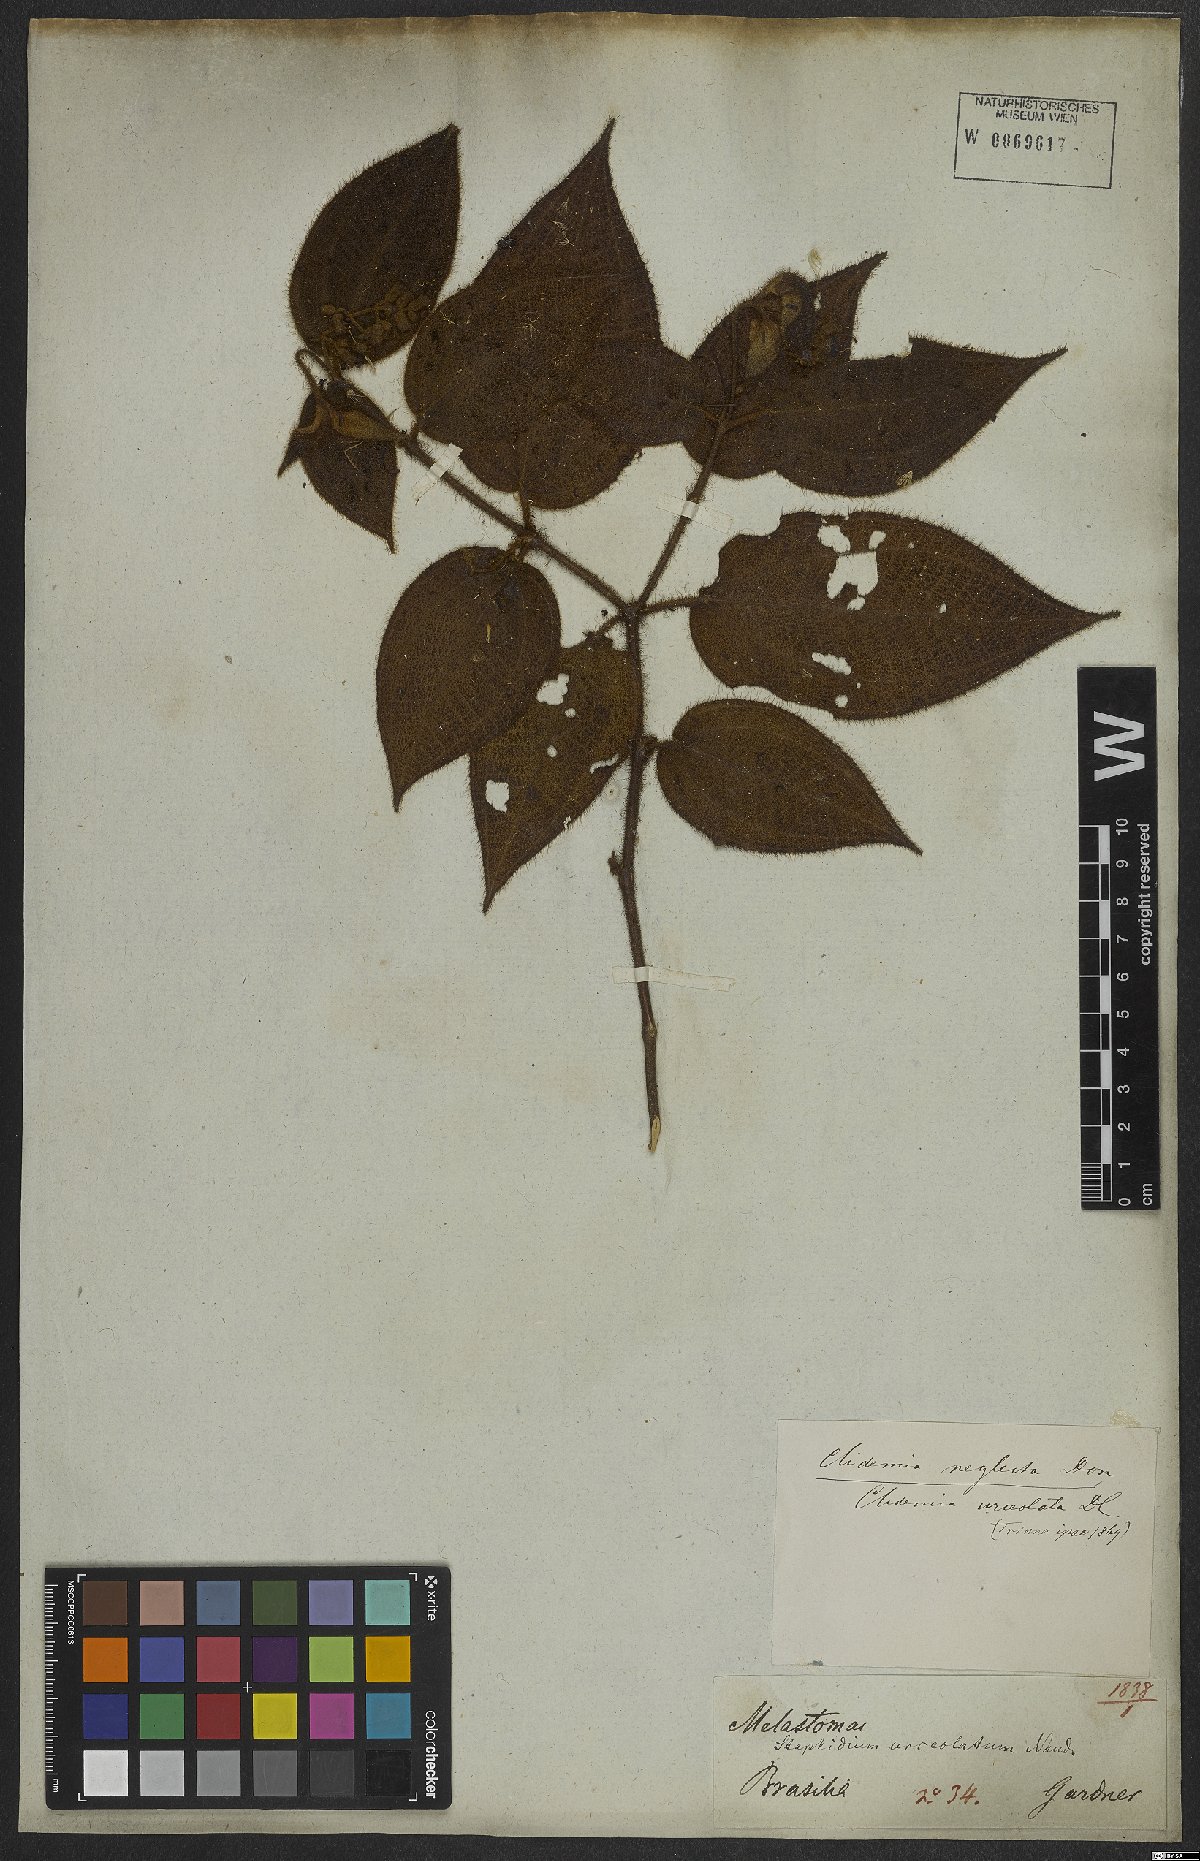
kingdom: Plantae
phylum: Tracheophyta
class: Magnoliopsida
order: Myrtales
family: Melastomataceae
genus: Miconia
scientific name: Miconia dependens
